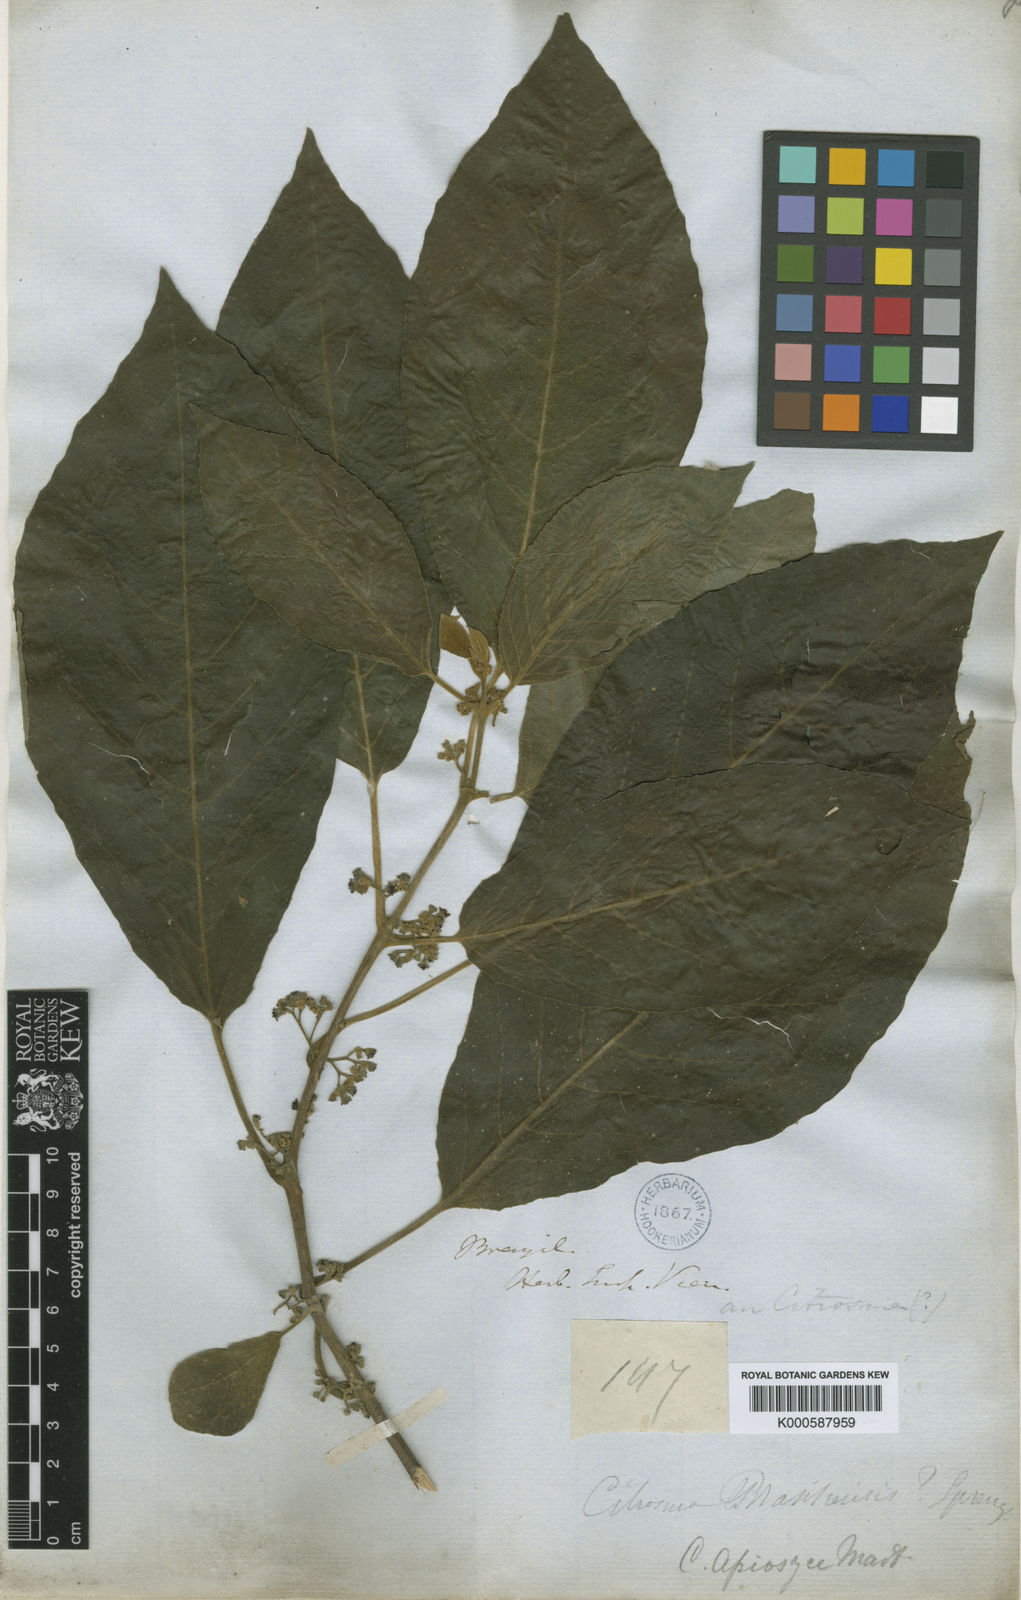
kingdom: Plantae
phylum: Tracheophyta
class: Magnoliopsida
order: Laurales
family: Siparunaceae
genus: Siparuna
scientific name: Siparuna brasiliensis
